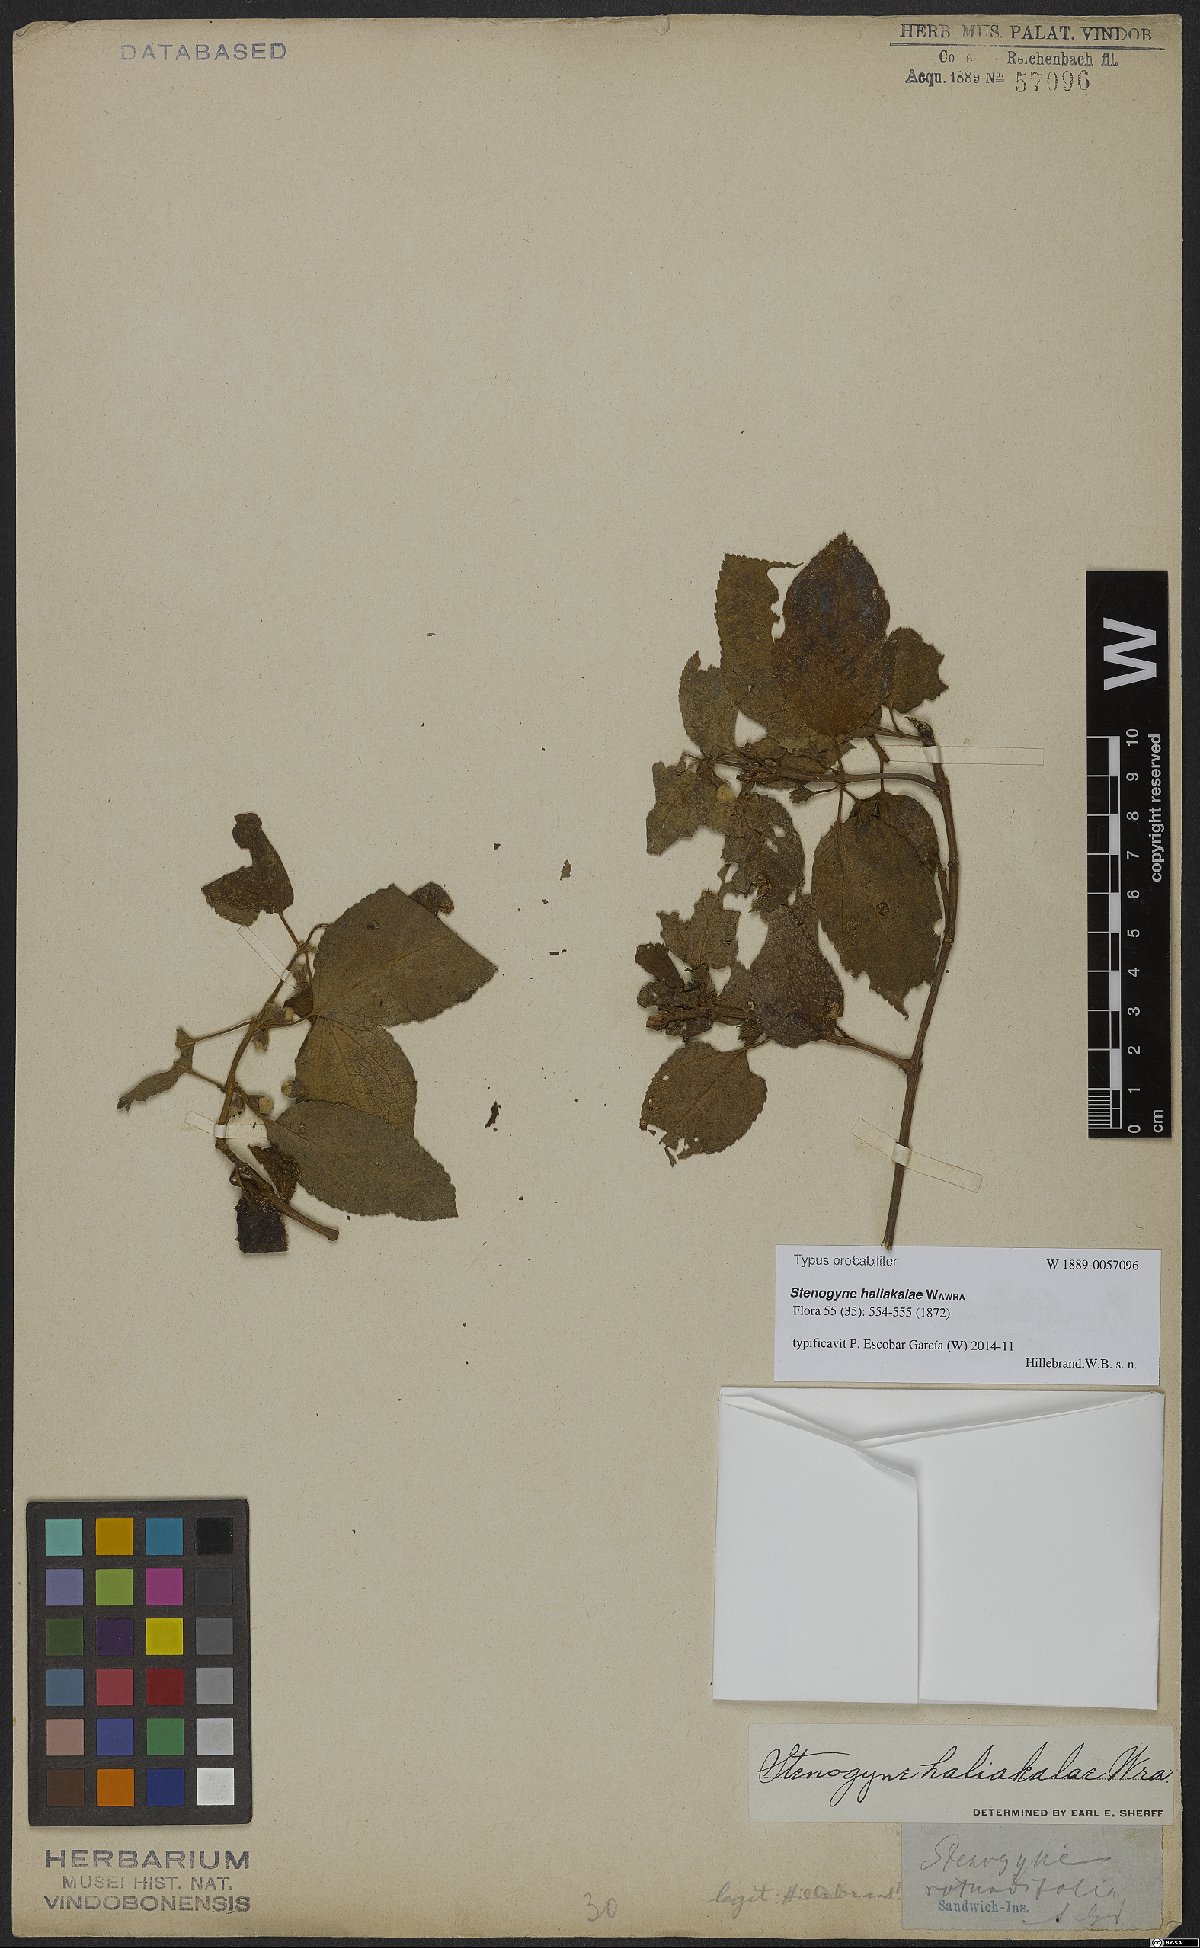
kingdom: Plantae
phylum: Tracheophyta
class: Magnoliopsida
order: Lamiales
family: Lamiaceae
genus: Stenogyne
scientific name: Stenogyne haliakalae
